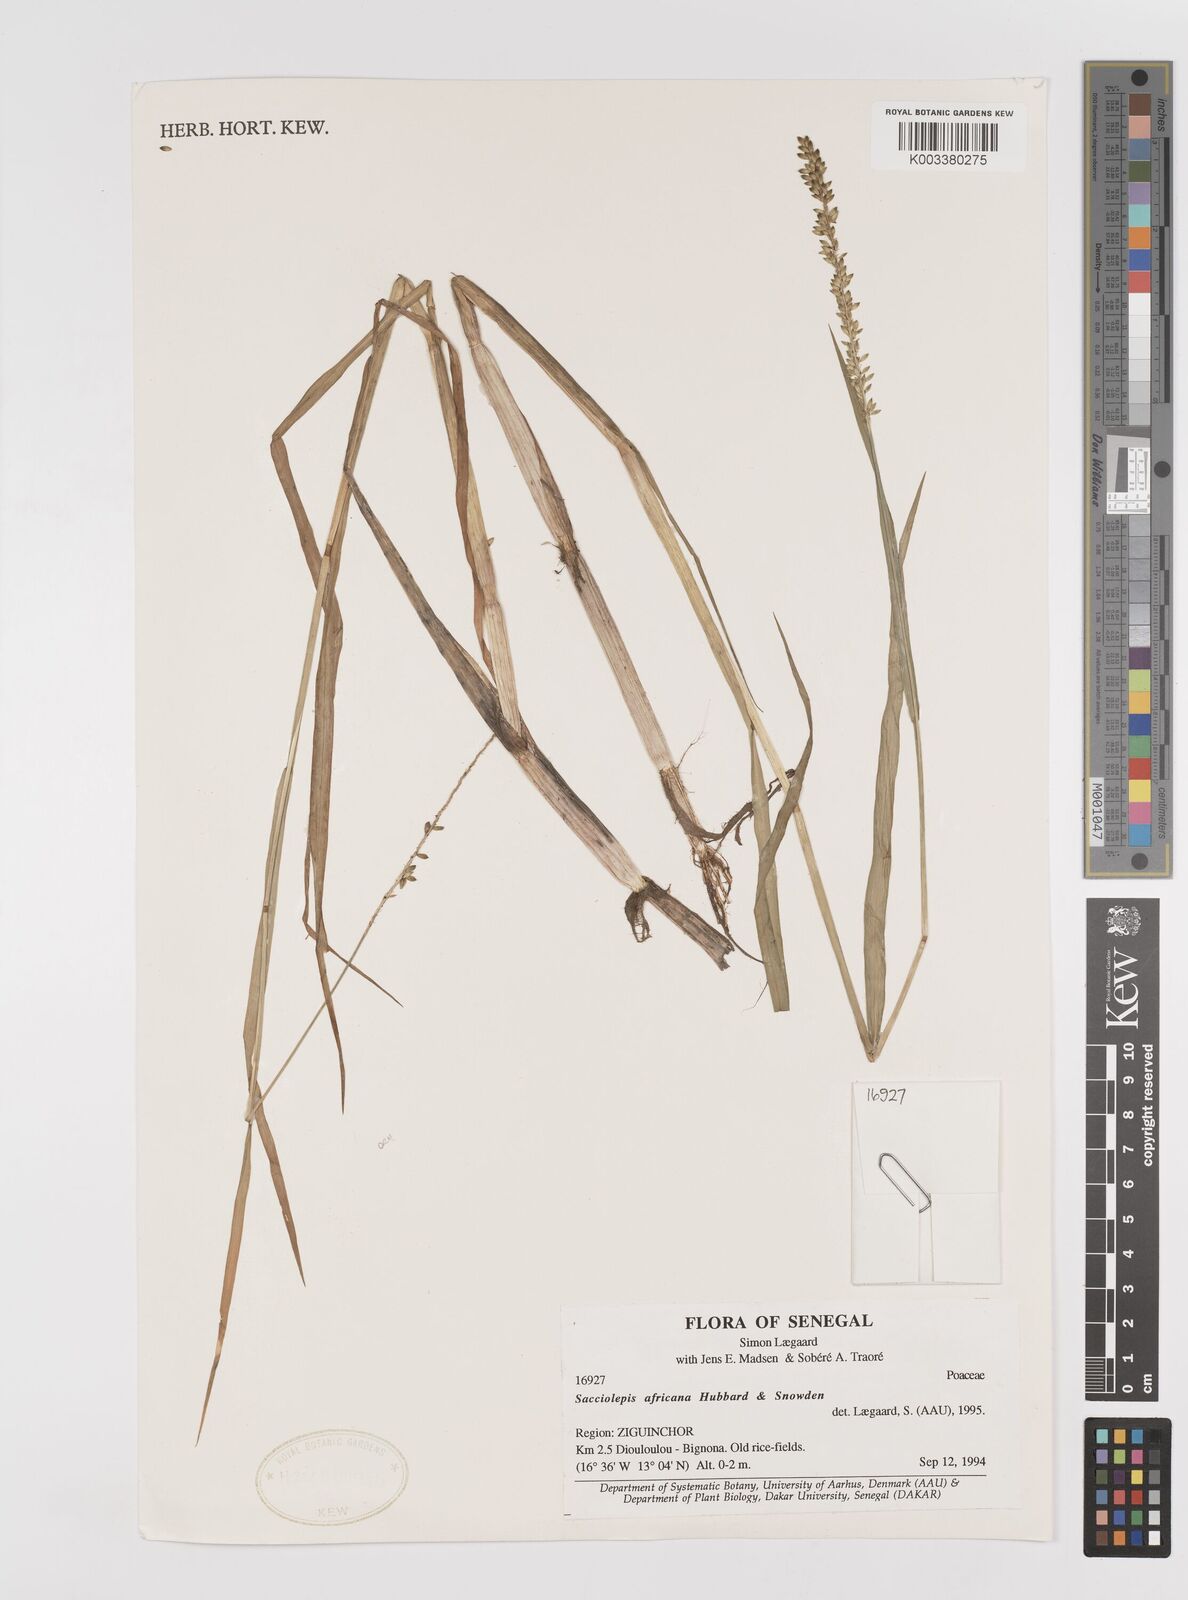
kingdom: Plantae
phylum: Tracheophyta
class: Liliopsida
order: Poales
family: Poaceae
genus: Sacciolepis
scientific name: Sacciolepis africana
